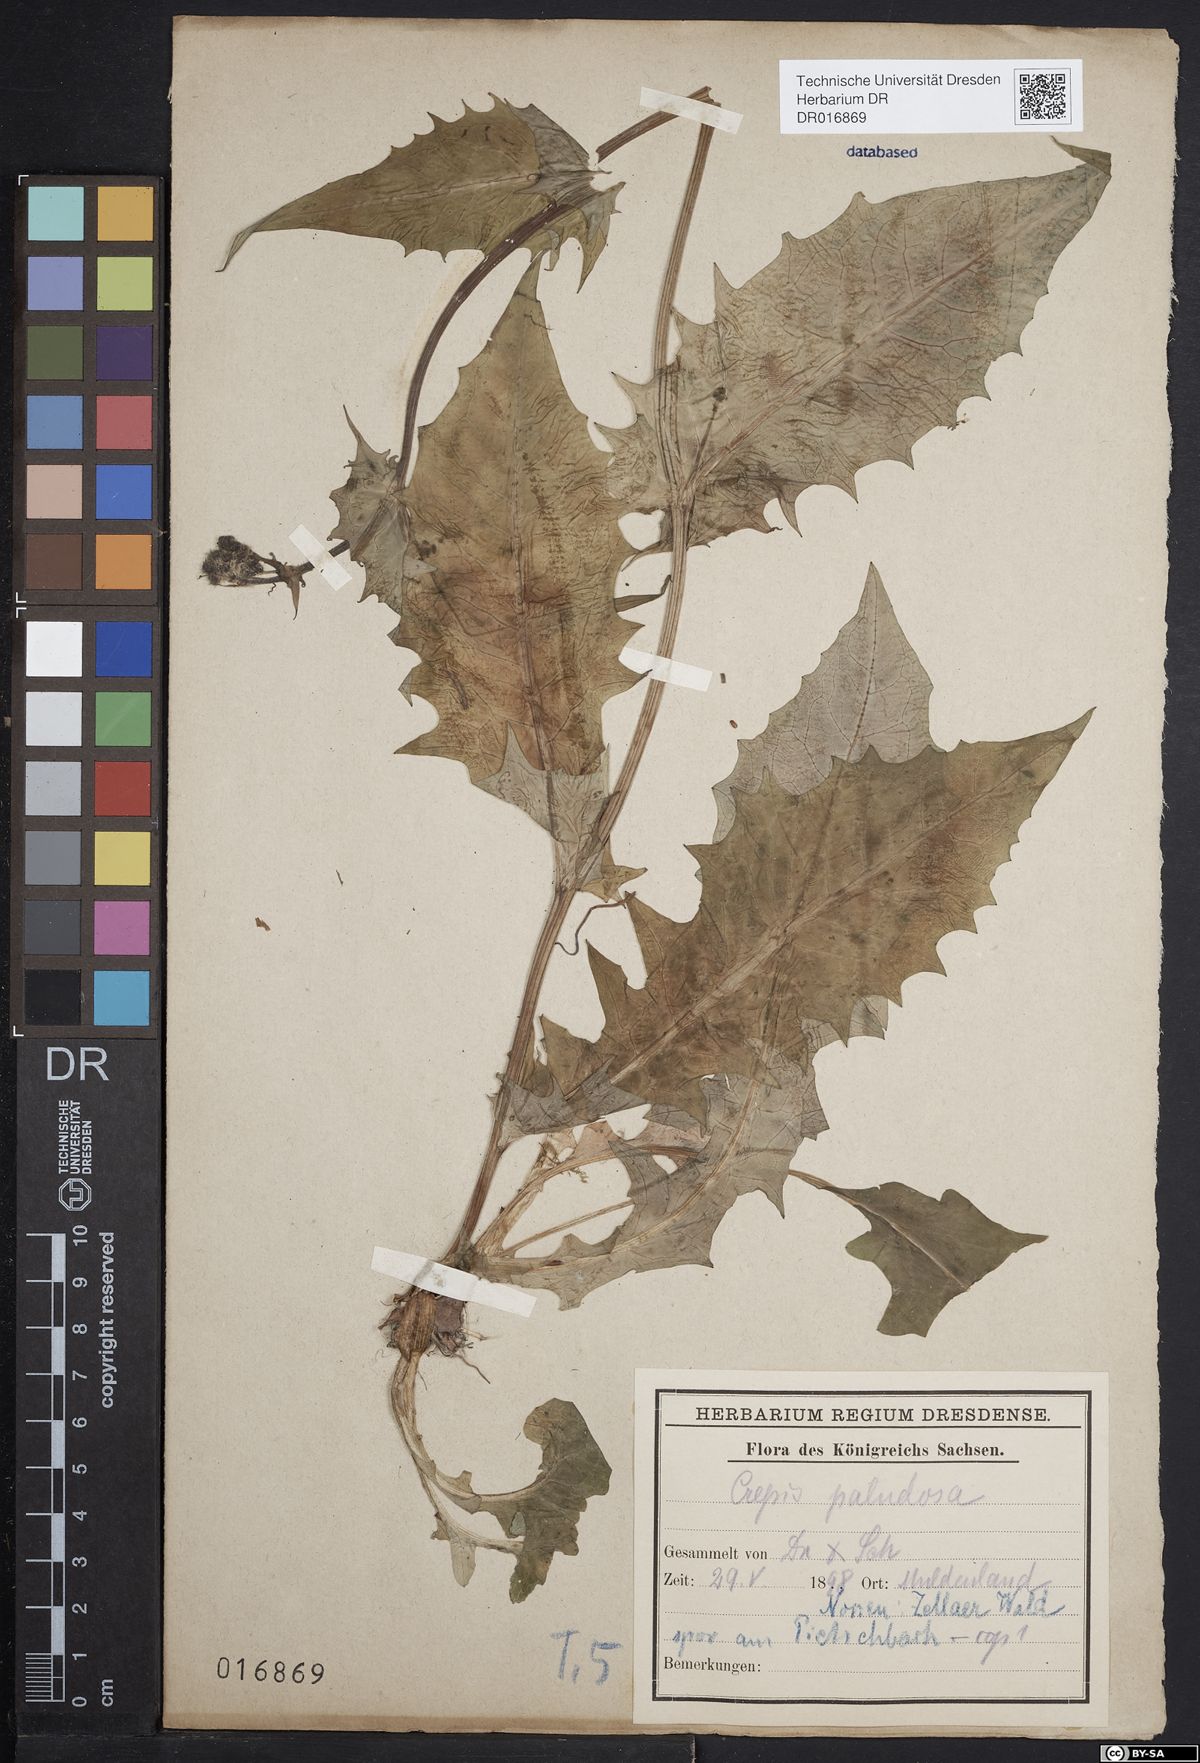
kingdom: Plantae
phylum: Tracheophyta
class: Magnoliopsida
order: Asterales
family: Asteraceae
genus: Crepis
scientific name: Crepis paludosa
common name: Marsh hawk's-beard
